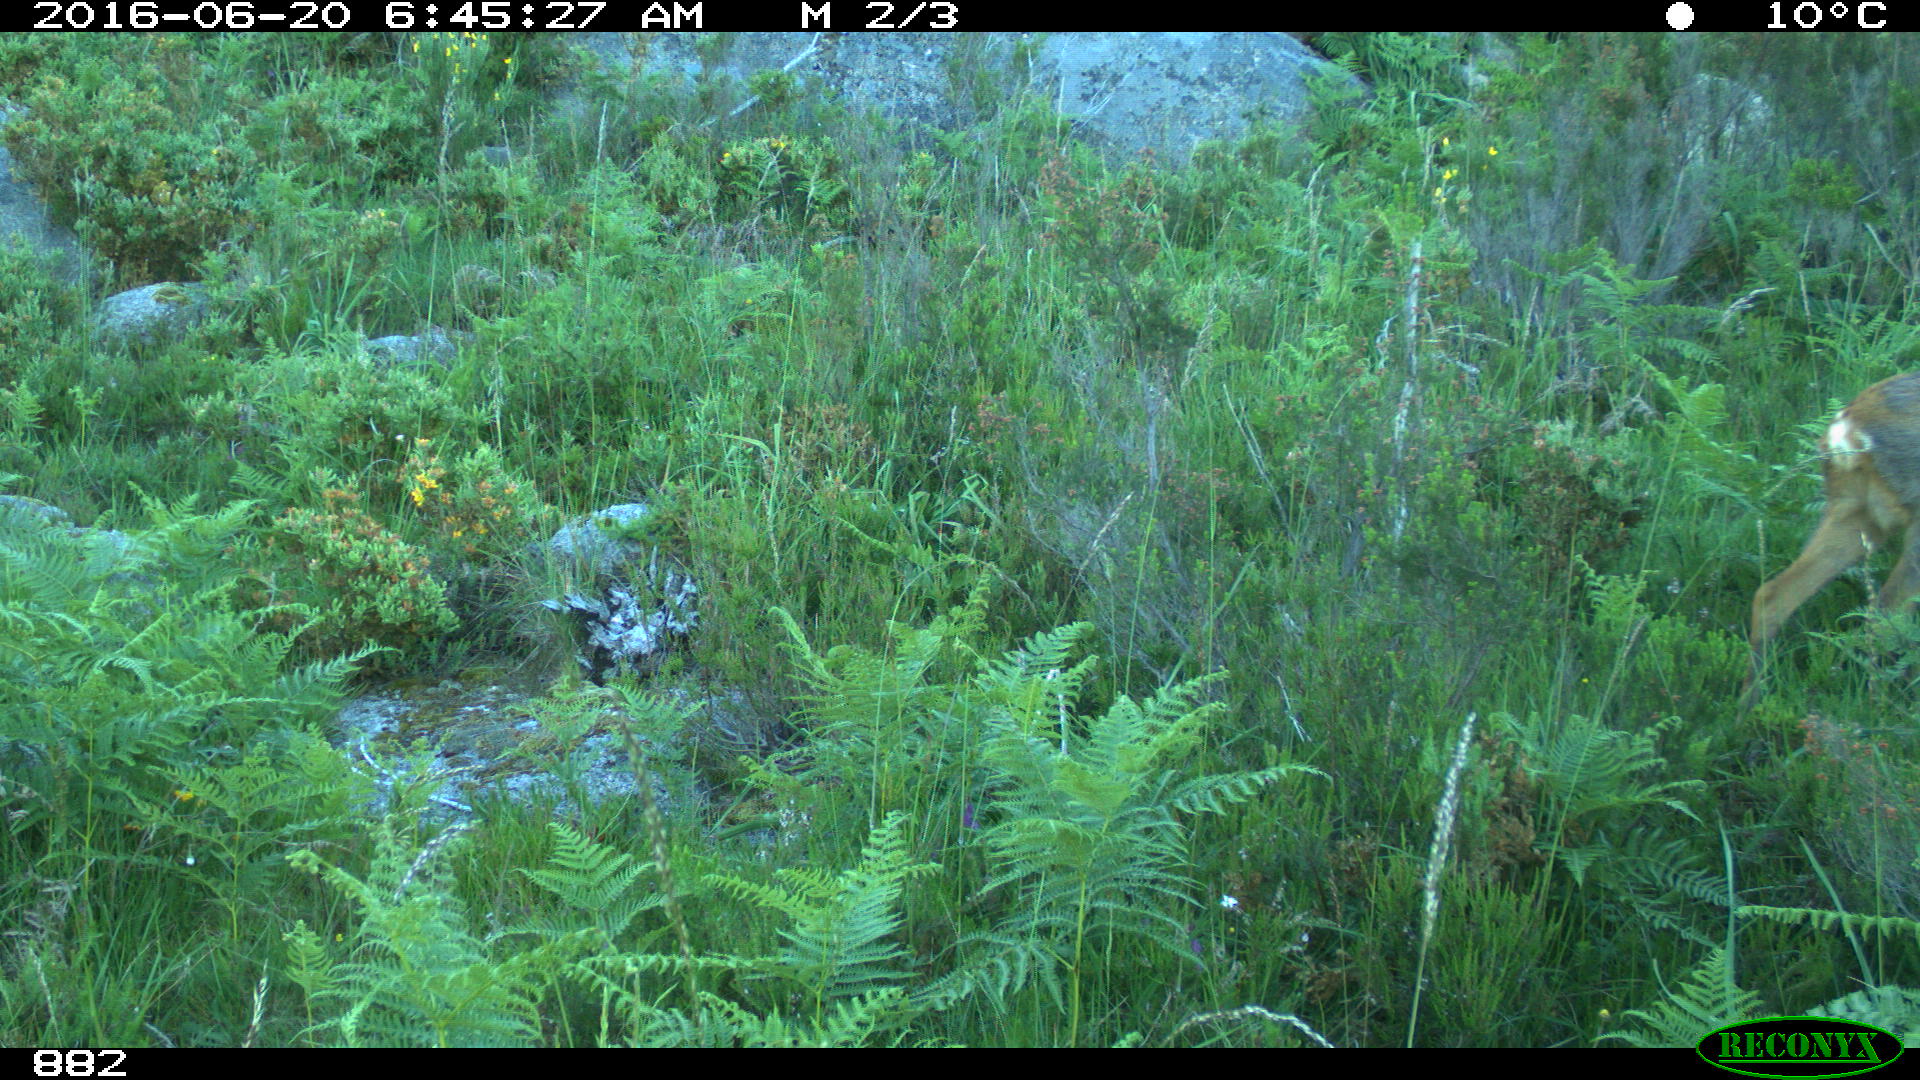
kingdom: Animalia
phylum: Chordata
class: Mammalia
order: Artiodactyla
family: Cervidae
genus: Capreolus
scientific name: Capreolus capreolus
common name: Western roe deer
